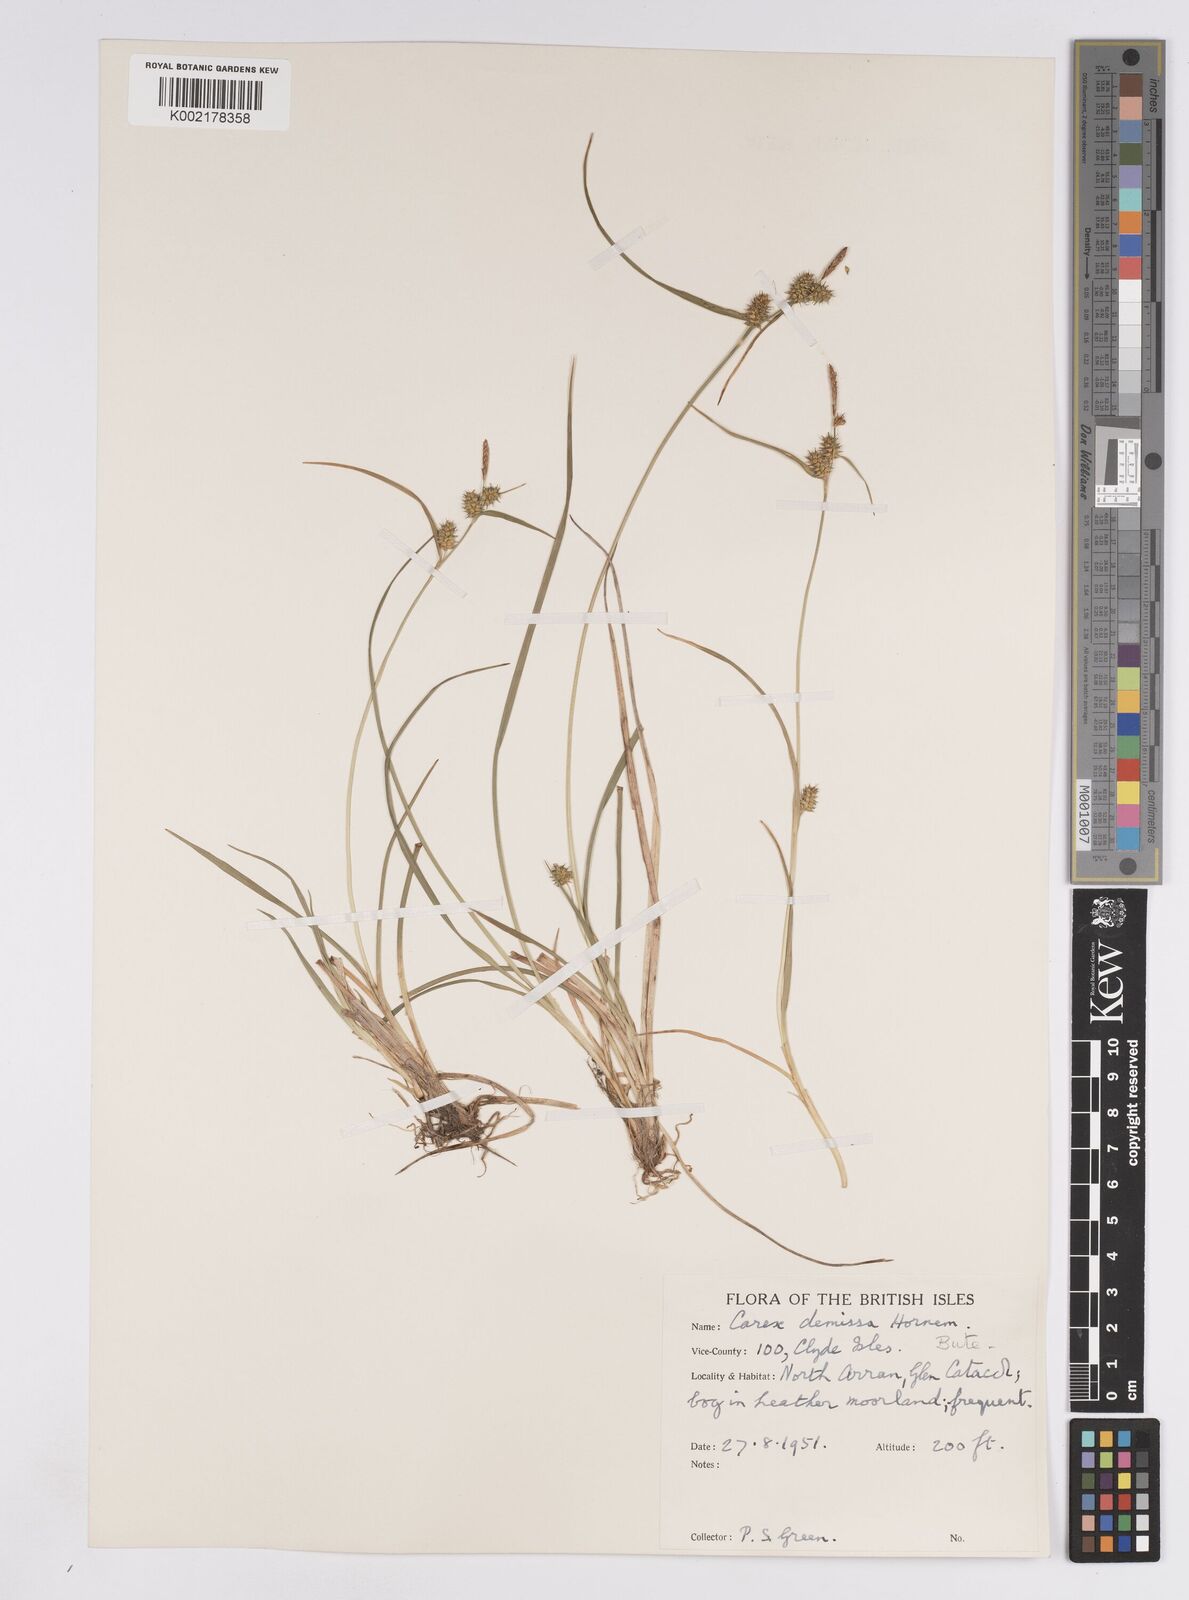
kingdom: Plantae
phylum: Tracheophyta
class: Liliopsida
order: Poales
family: Cyperaceae
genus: Carex
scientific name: Carex demissa
